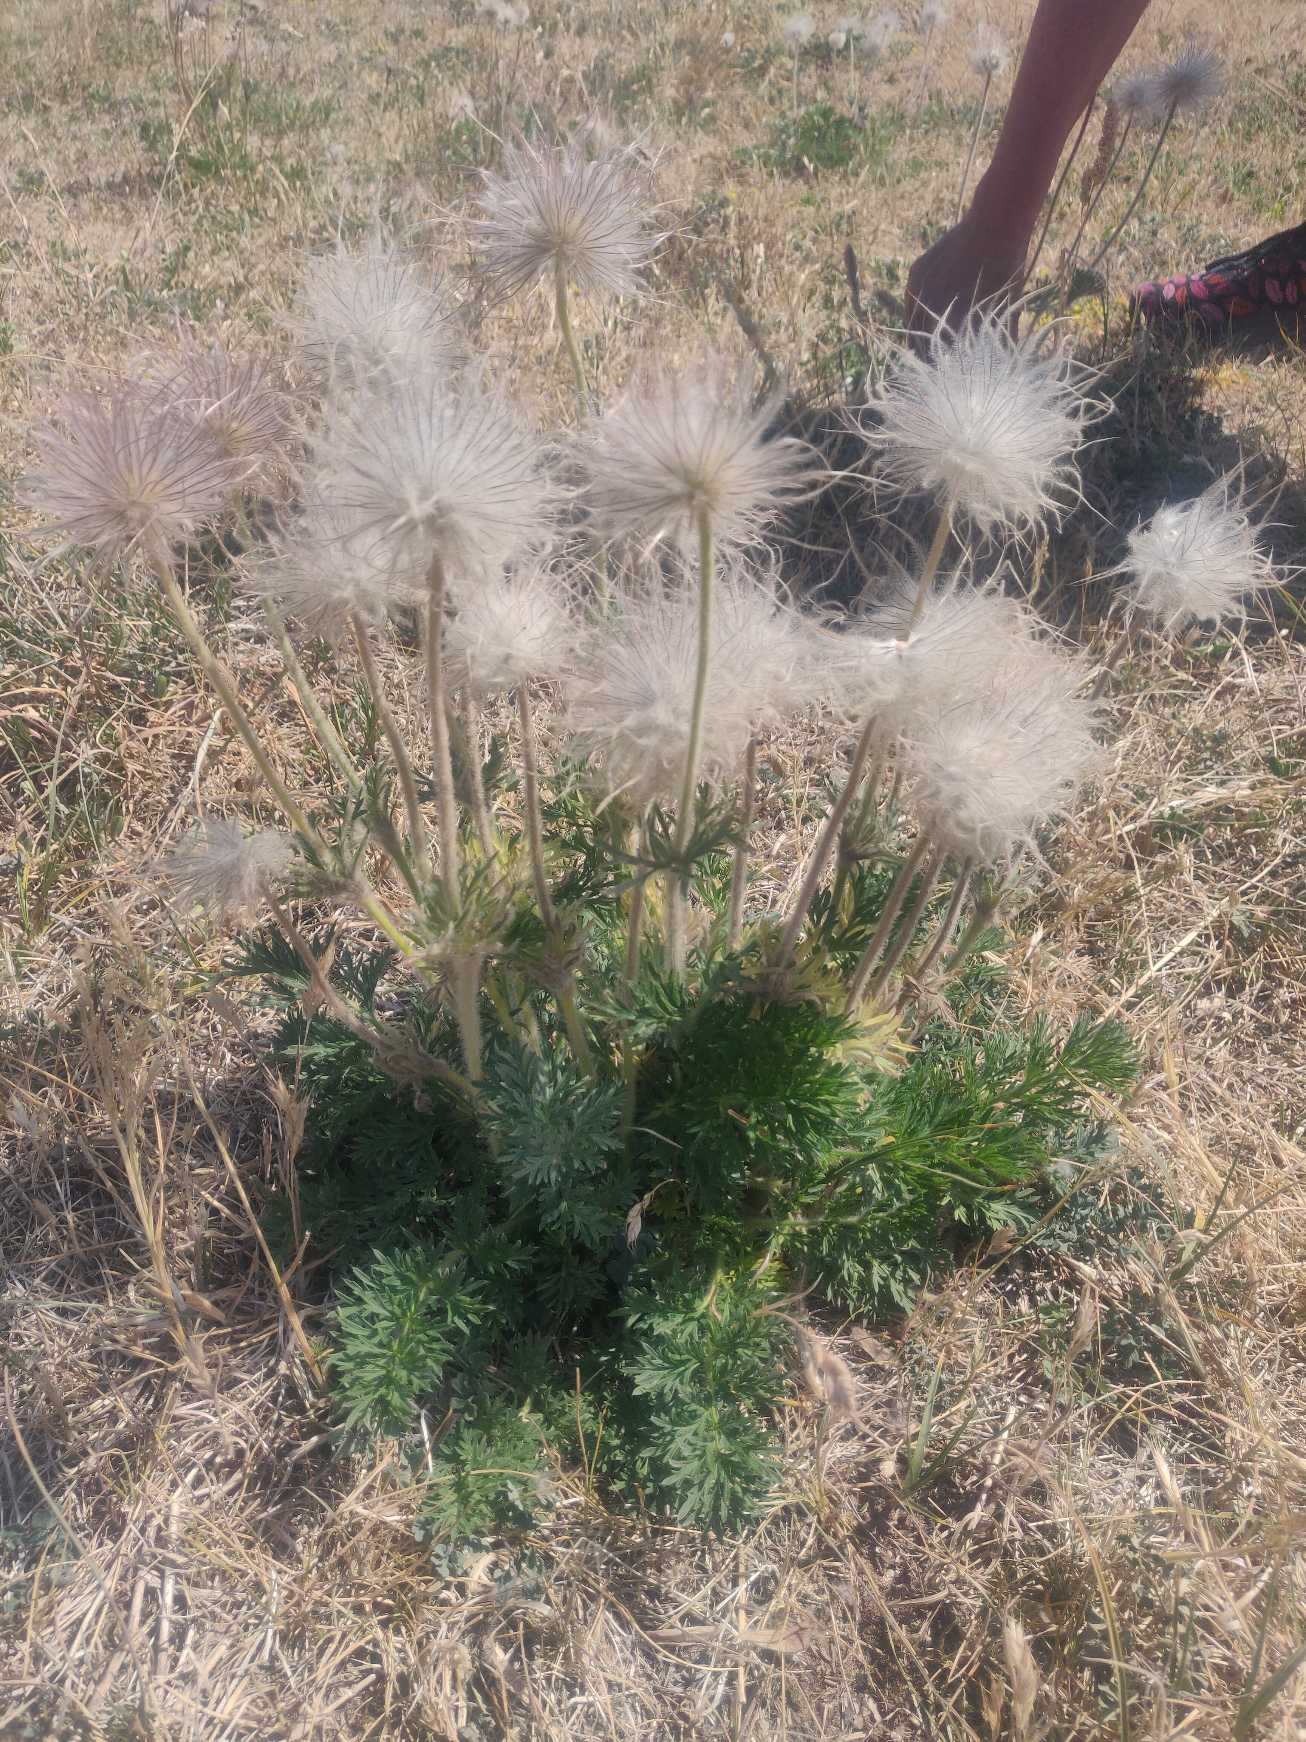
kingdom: Plantae
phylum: Tracheophyta
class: Magnoliopsida
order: Ranunculales
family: Ranunculaceae
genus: Pulsatilla
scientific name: Pulsatilla pratensis
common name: Nikkende kobjælde
